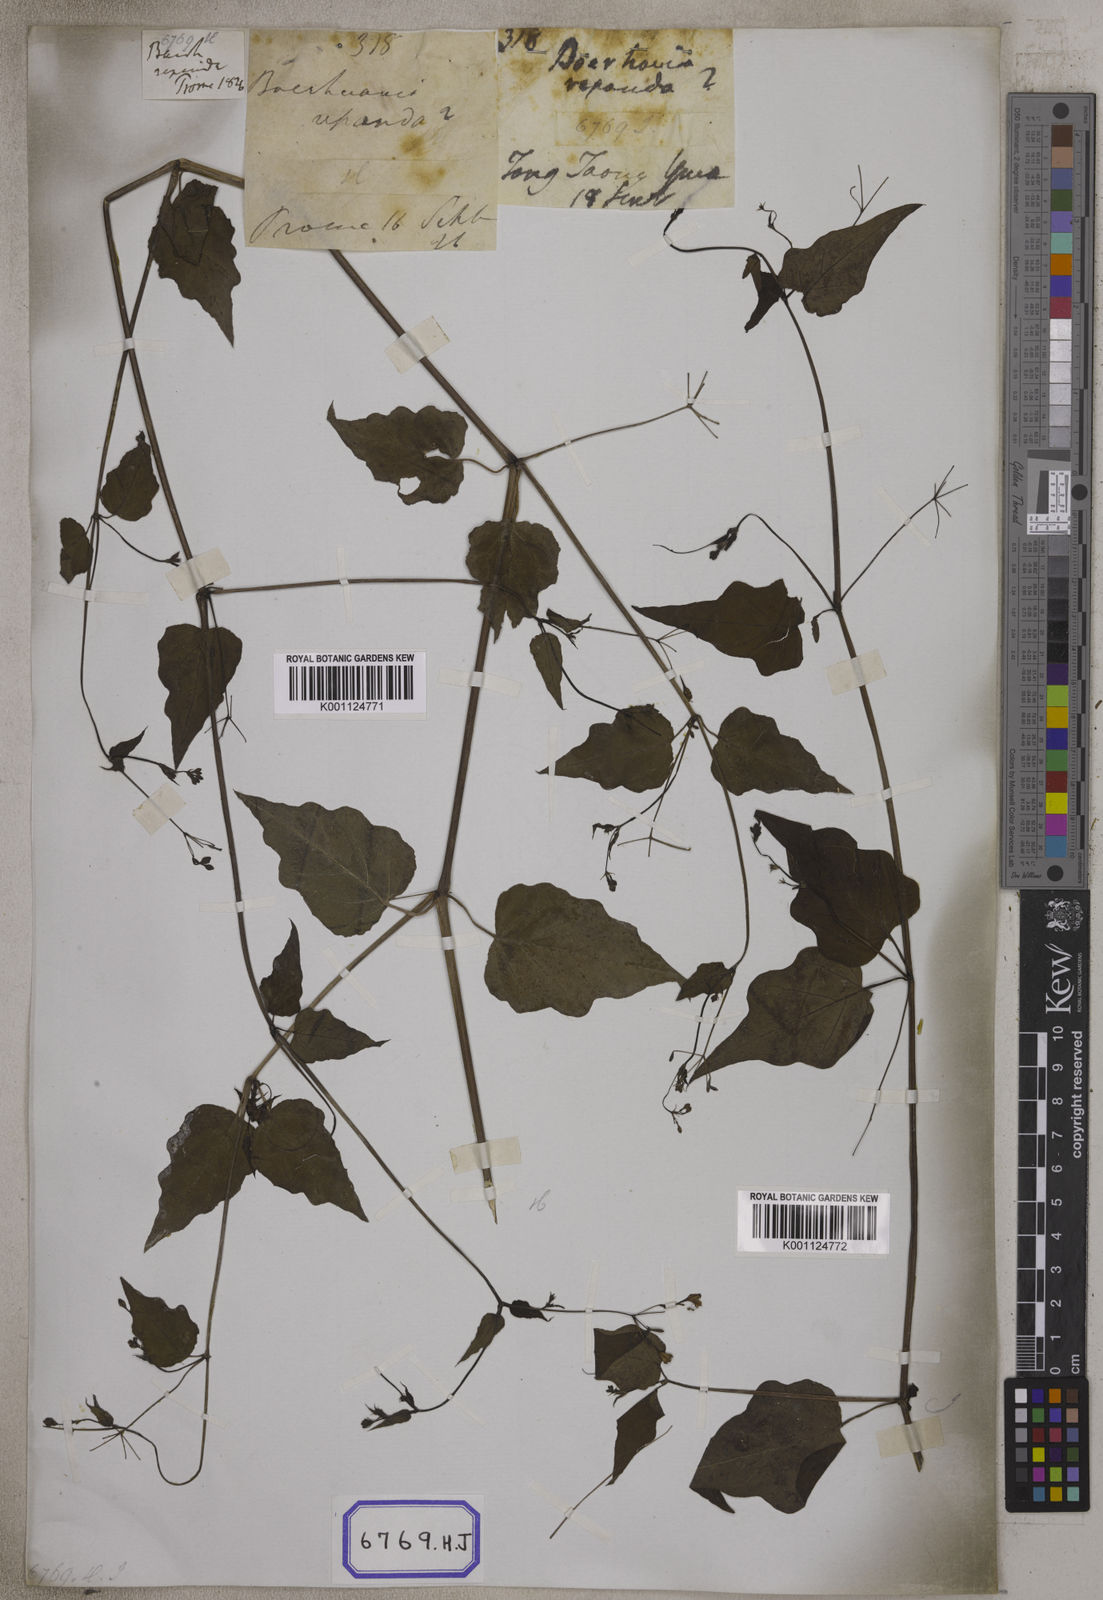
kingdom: Plantae
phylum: Tracheophyta
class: Magnoliopsida
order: Caryophyllales
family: Nyctaginaceae
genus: Commicarpus
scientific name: Commicarpus chinensis
